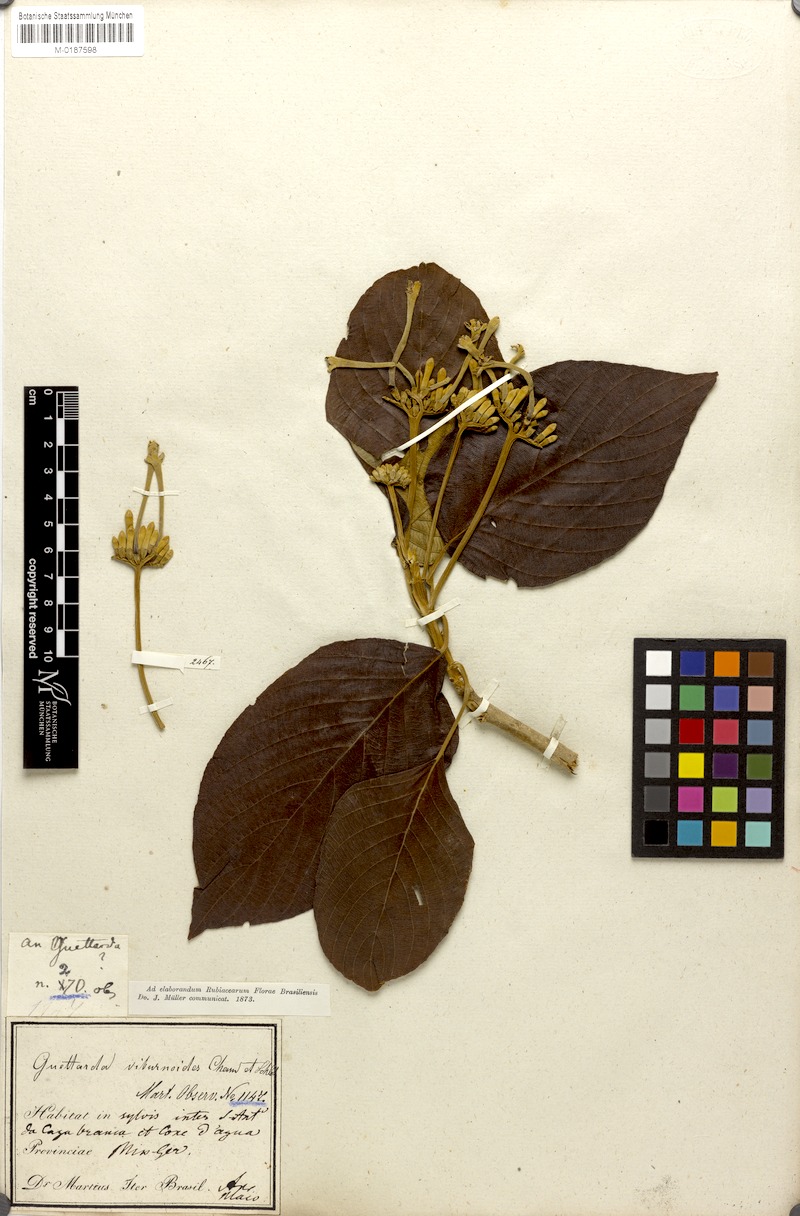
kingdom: Plantae
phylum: Tracheophyta
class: Magnoliopsida
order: Gentianales
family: Rubiaceae
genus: Guettarda
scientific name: Guettarda viburnoides
